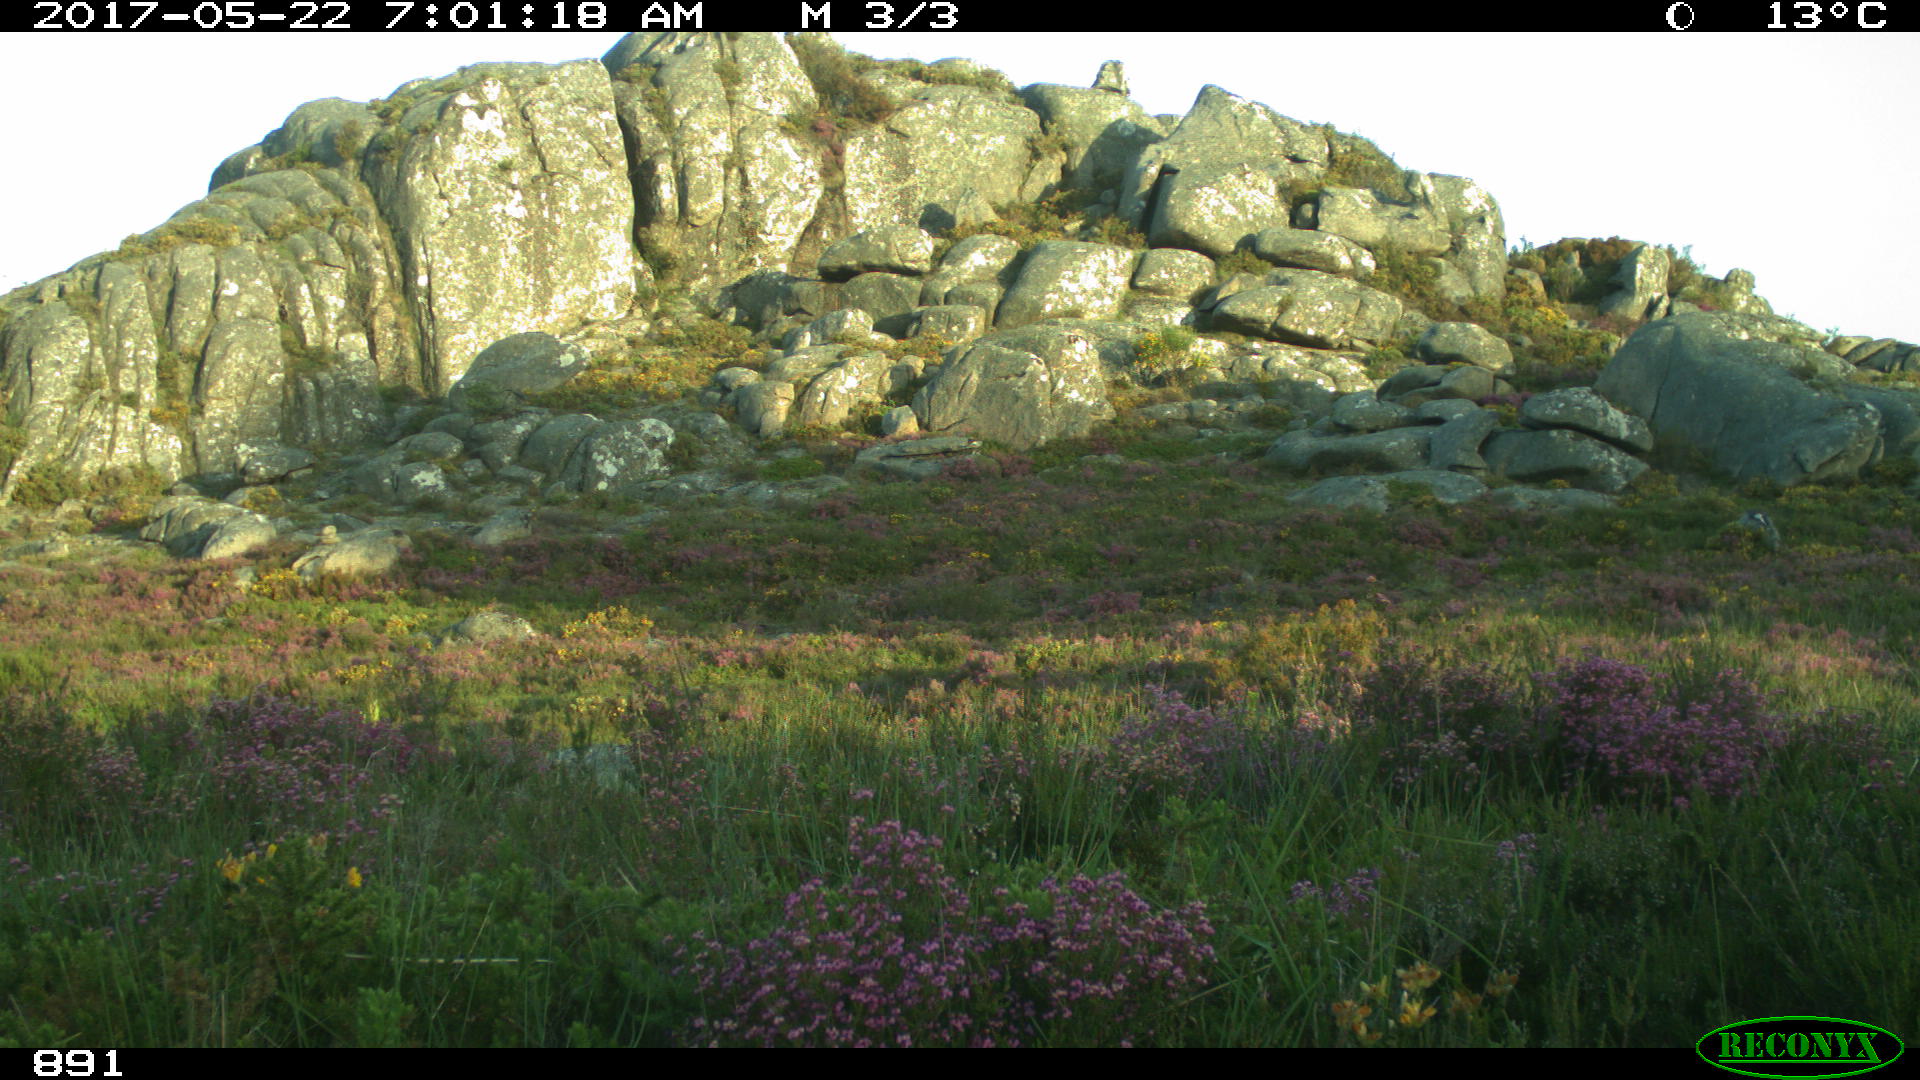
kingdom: Animalia
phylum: Chordata
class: Mammalia
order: Perissodactyla
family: Equidae
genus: Equus
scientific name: Equus caballus
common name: Horse
